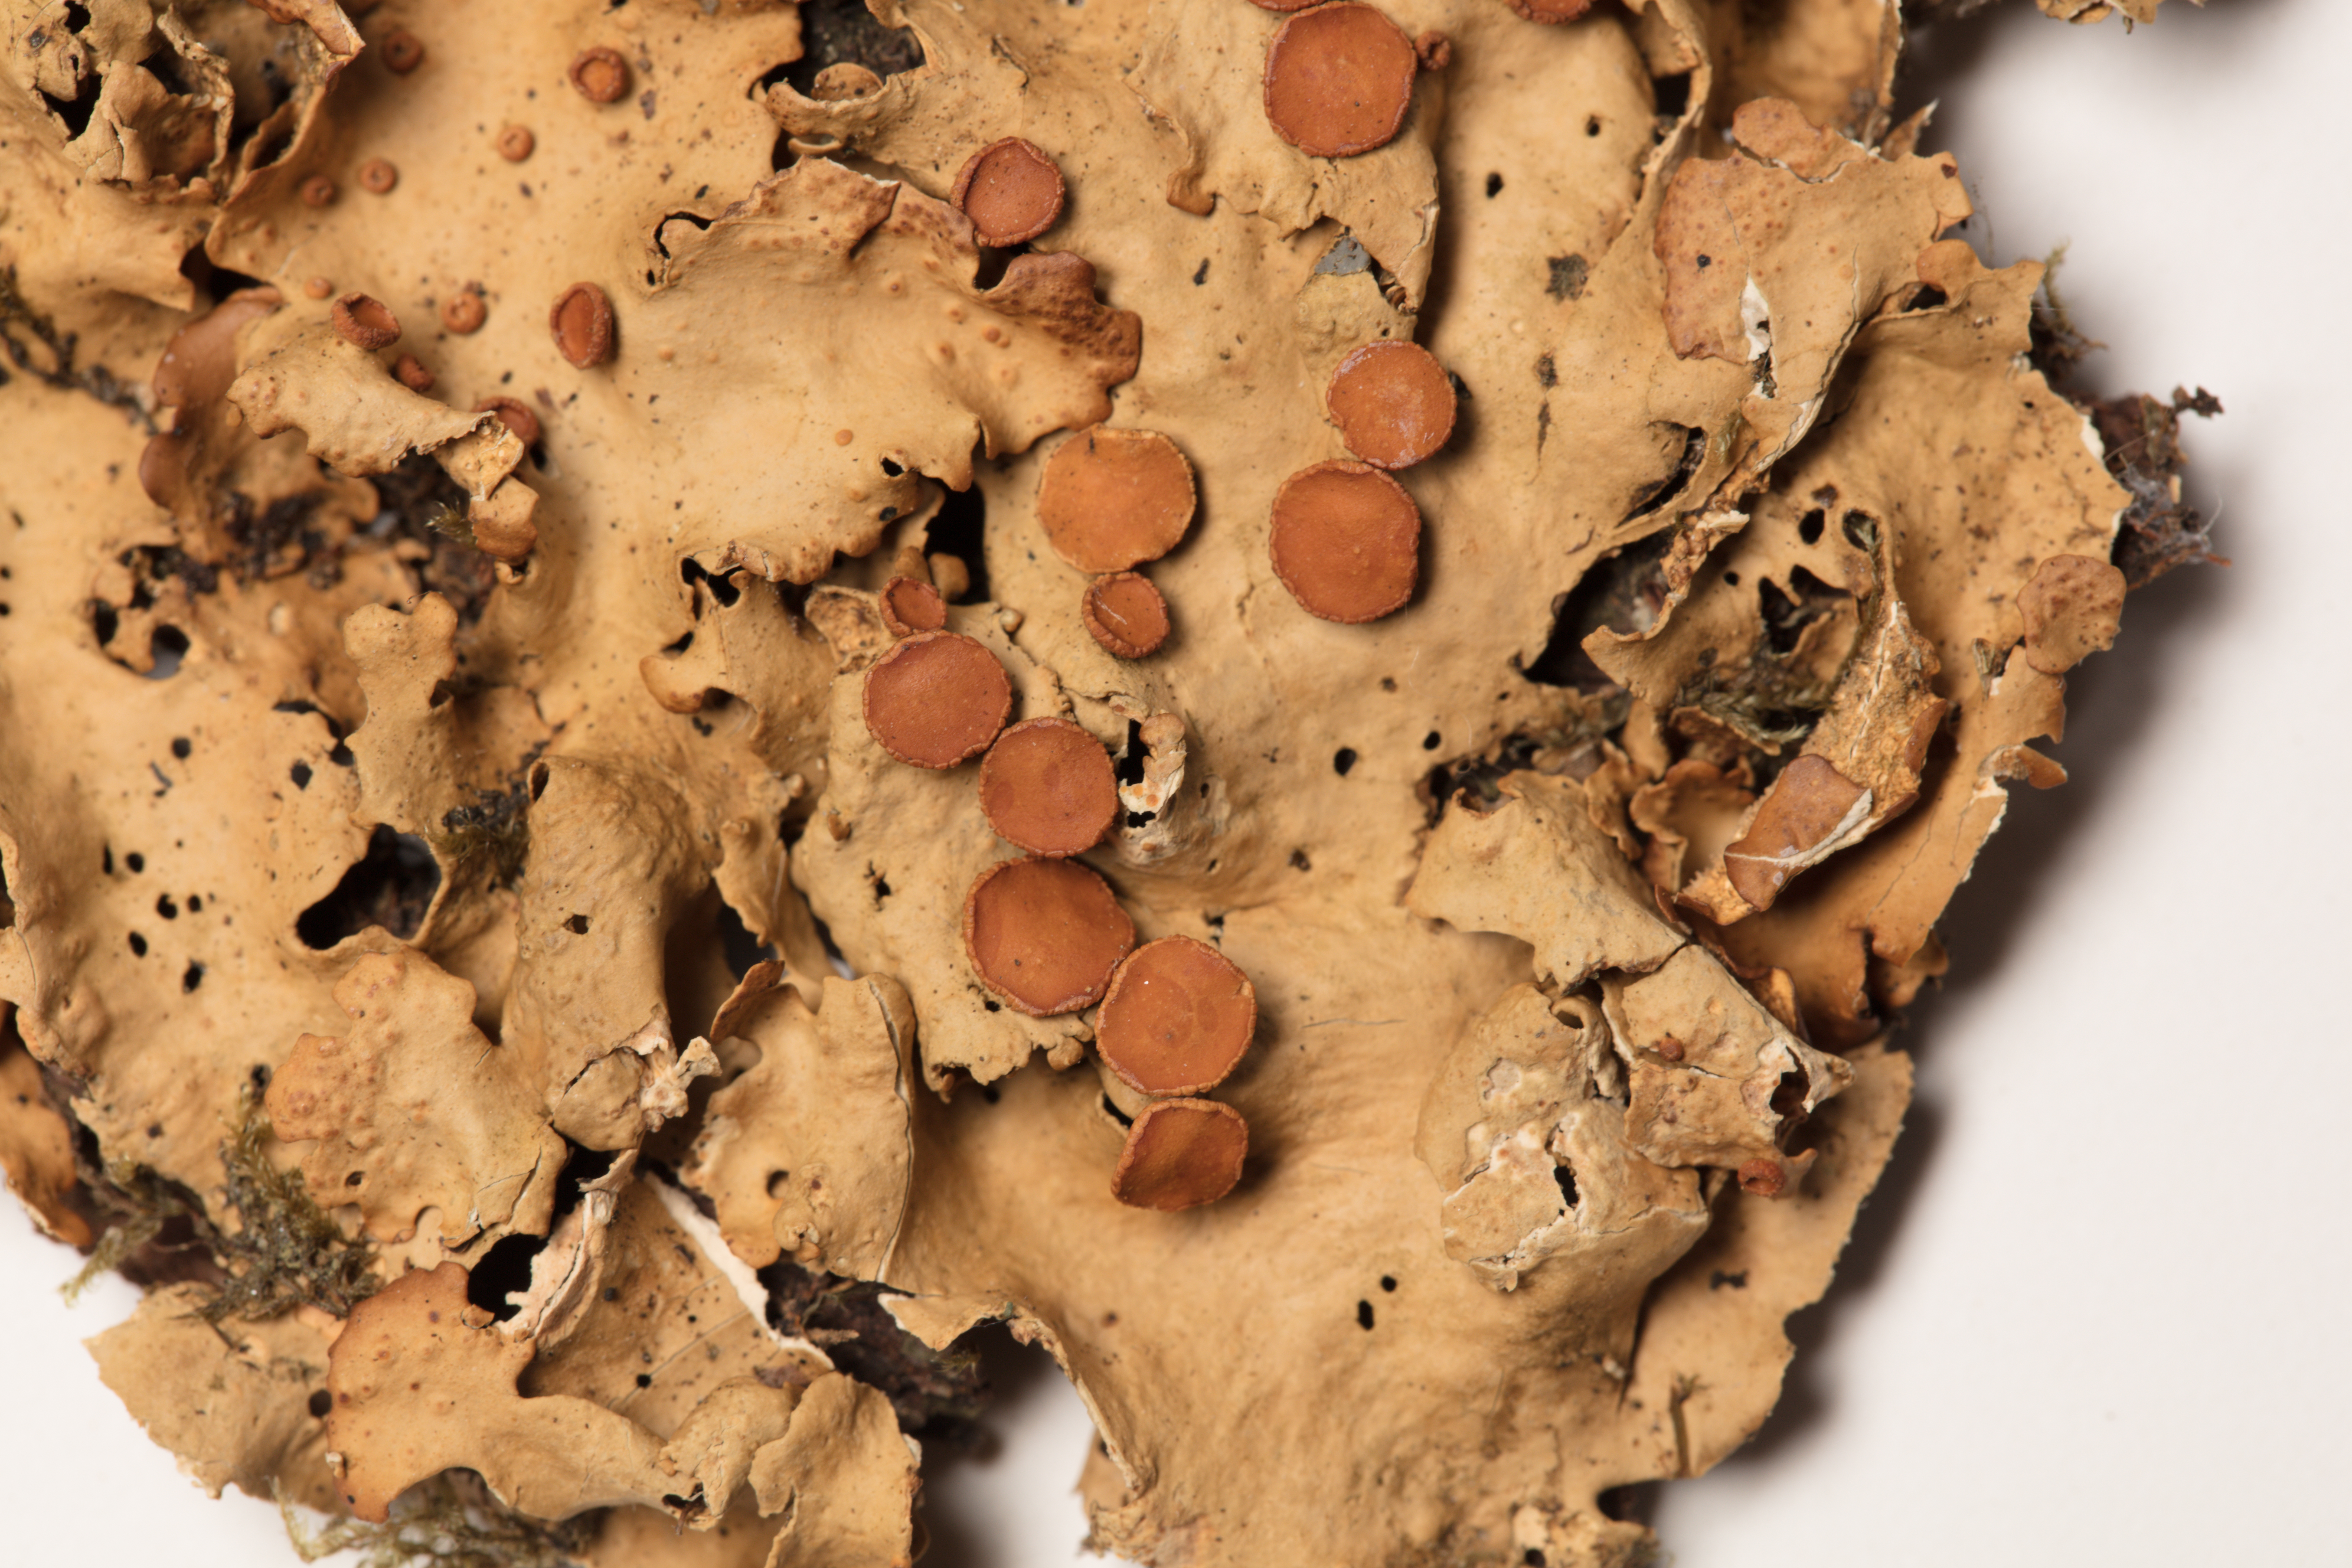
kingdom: Fungi
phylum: Ascomycota
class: Lecanoromycetes
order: Peltigerales
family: Lobariaceae
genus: Pseudocyphellaria
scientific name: Pseudocyphellaria homeophylla
